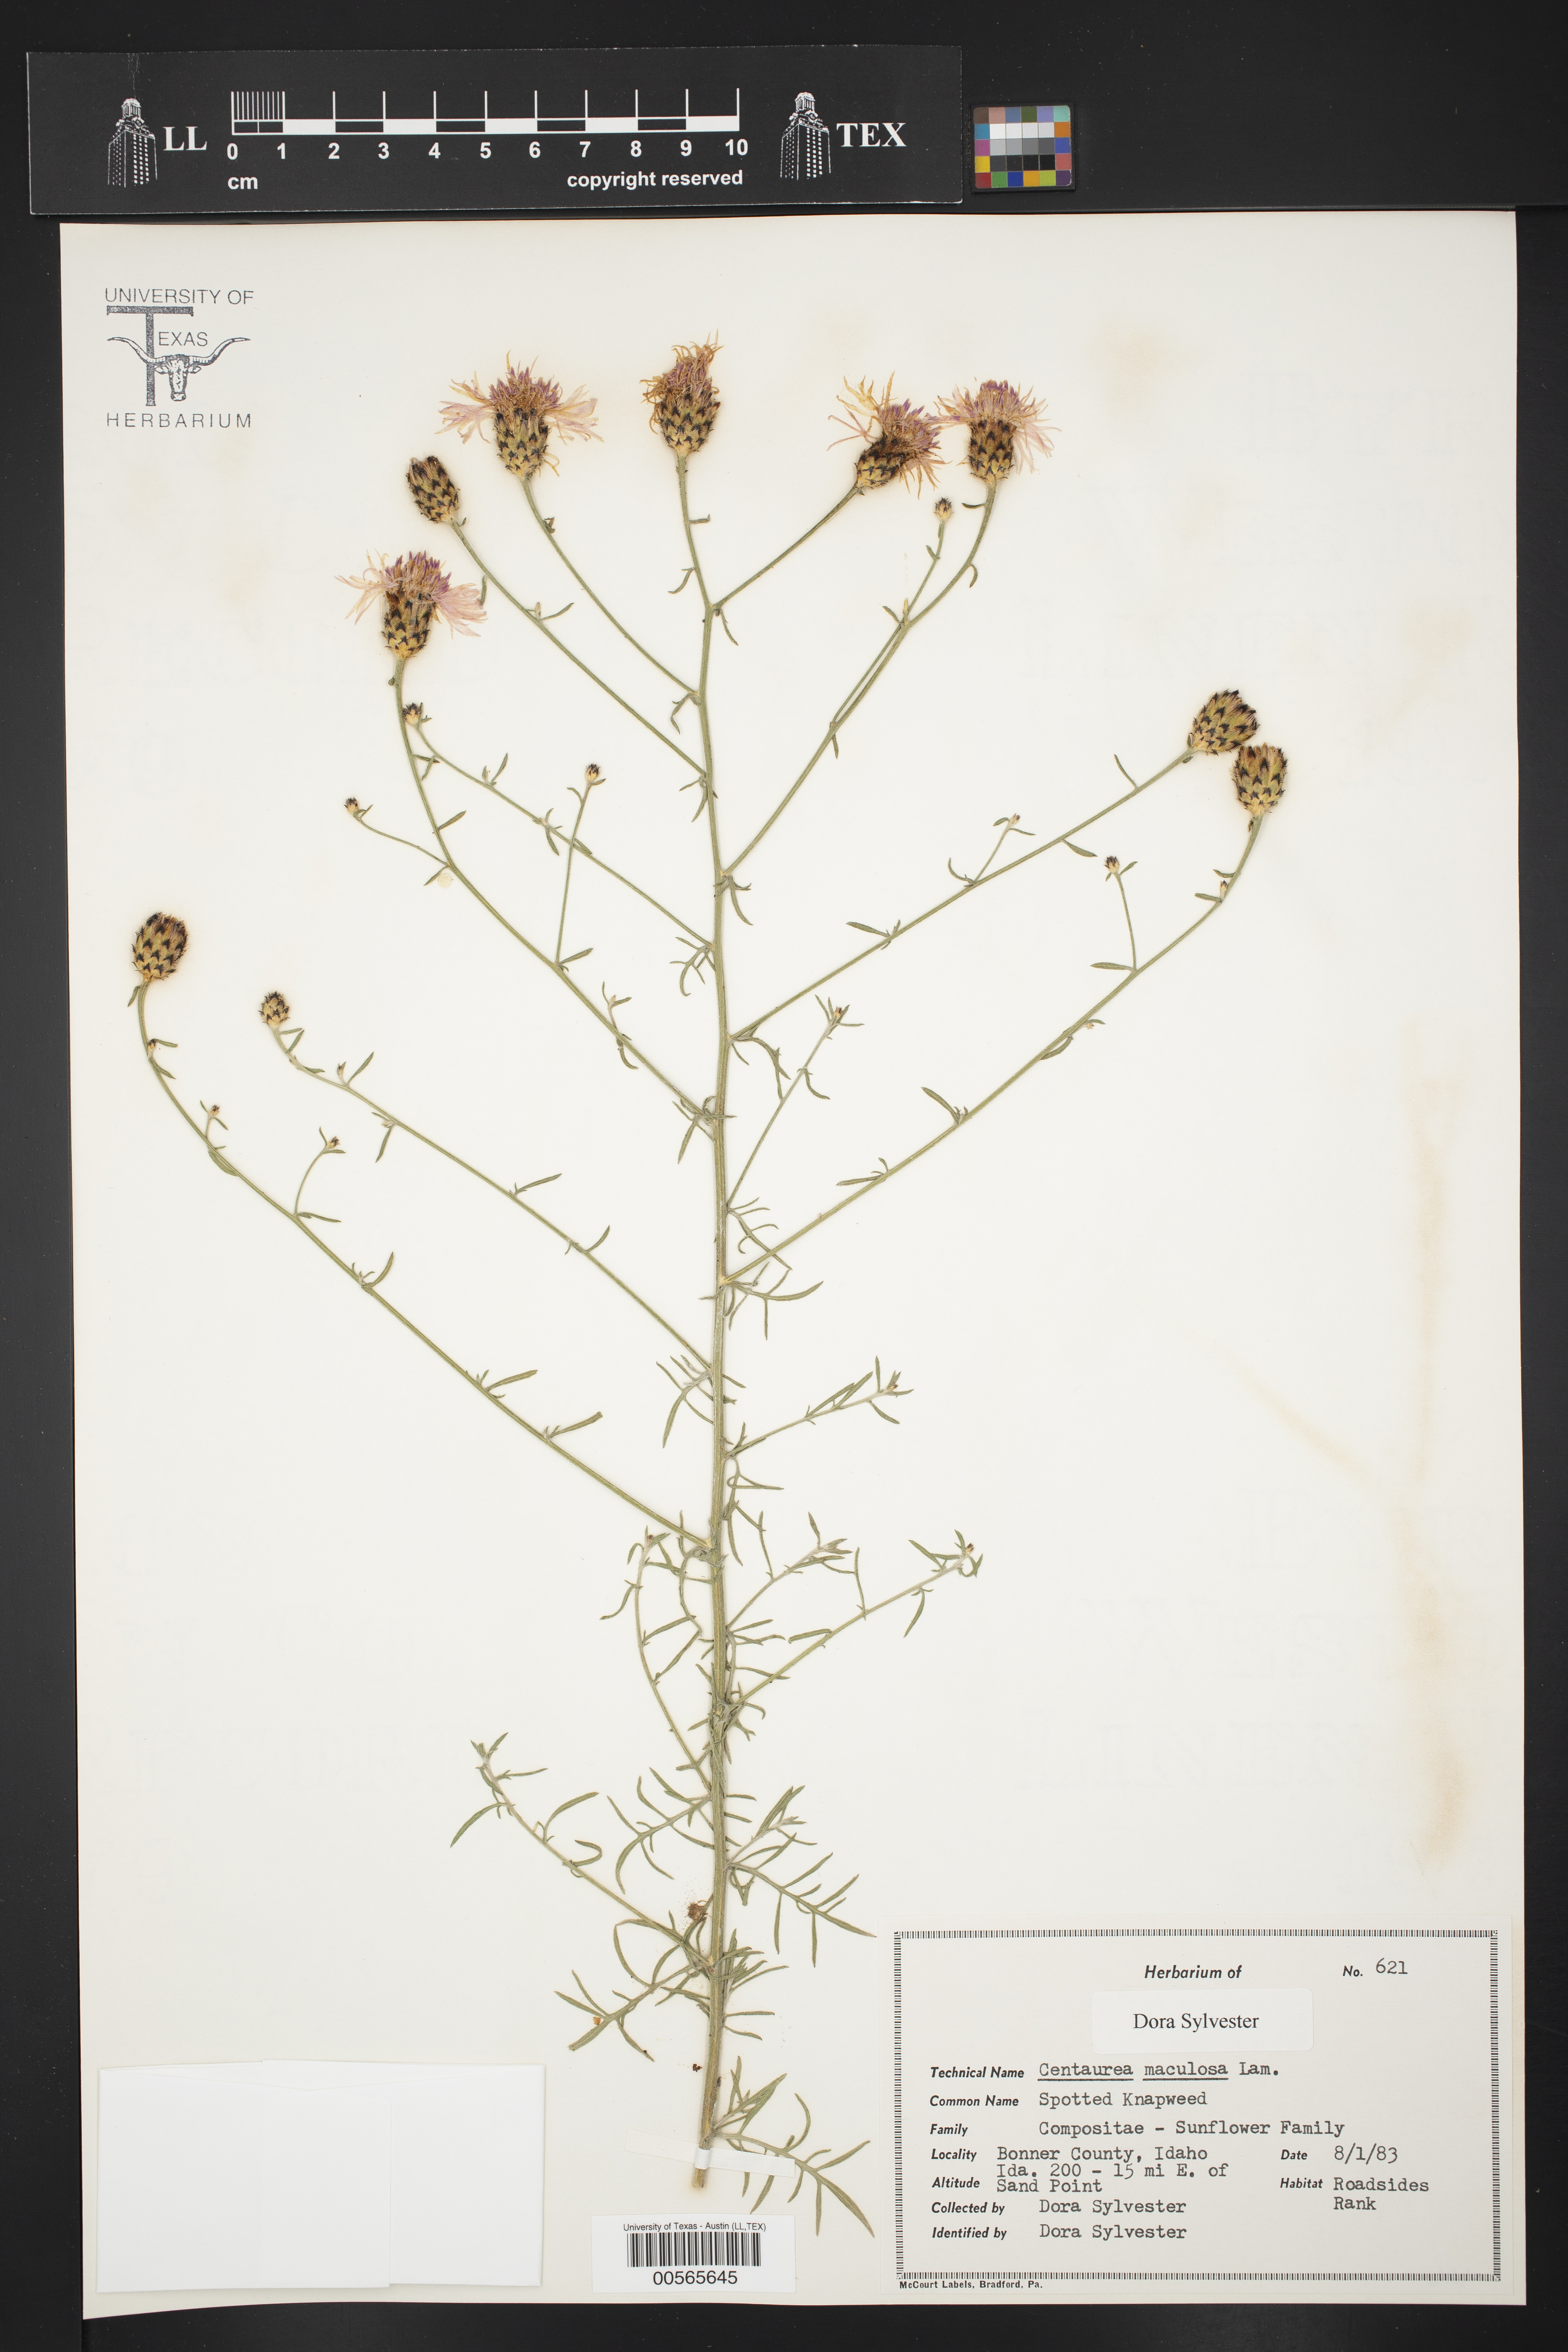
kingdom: Plantae
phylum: Tracheophyta
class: Magnoliopsida
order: Asterales
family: Asteraceae
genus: Centaurea
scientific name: Centaurea
